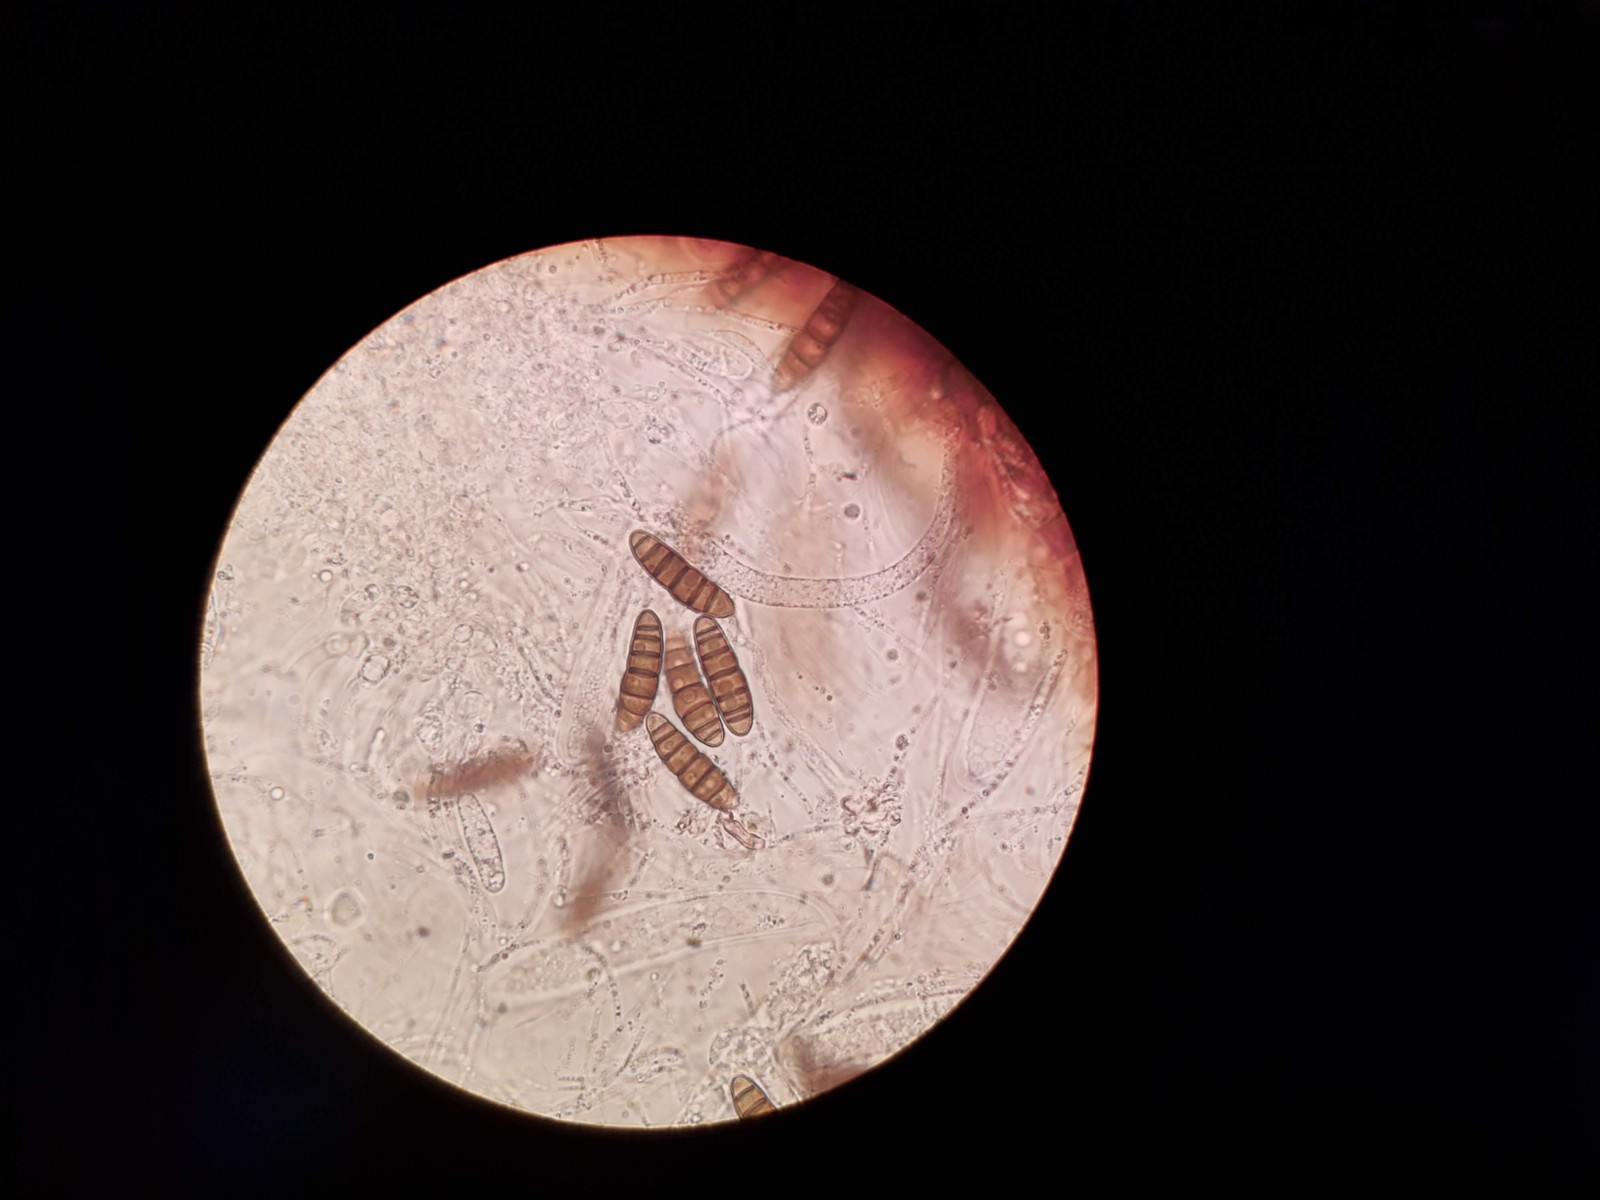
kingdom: Fungi
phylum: Ascomycota
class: Dothideomycetes
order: Pleosporales
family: Thyridariaceae
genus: Thyridaria
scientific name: Thyridaria macrostomoides
